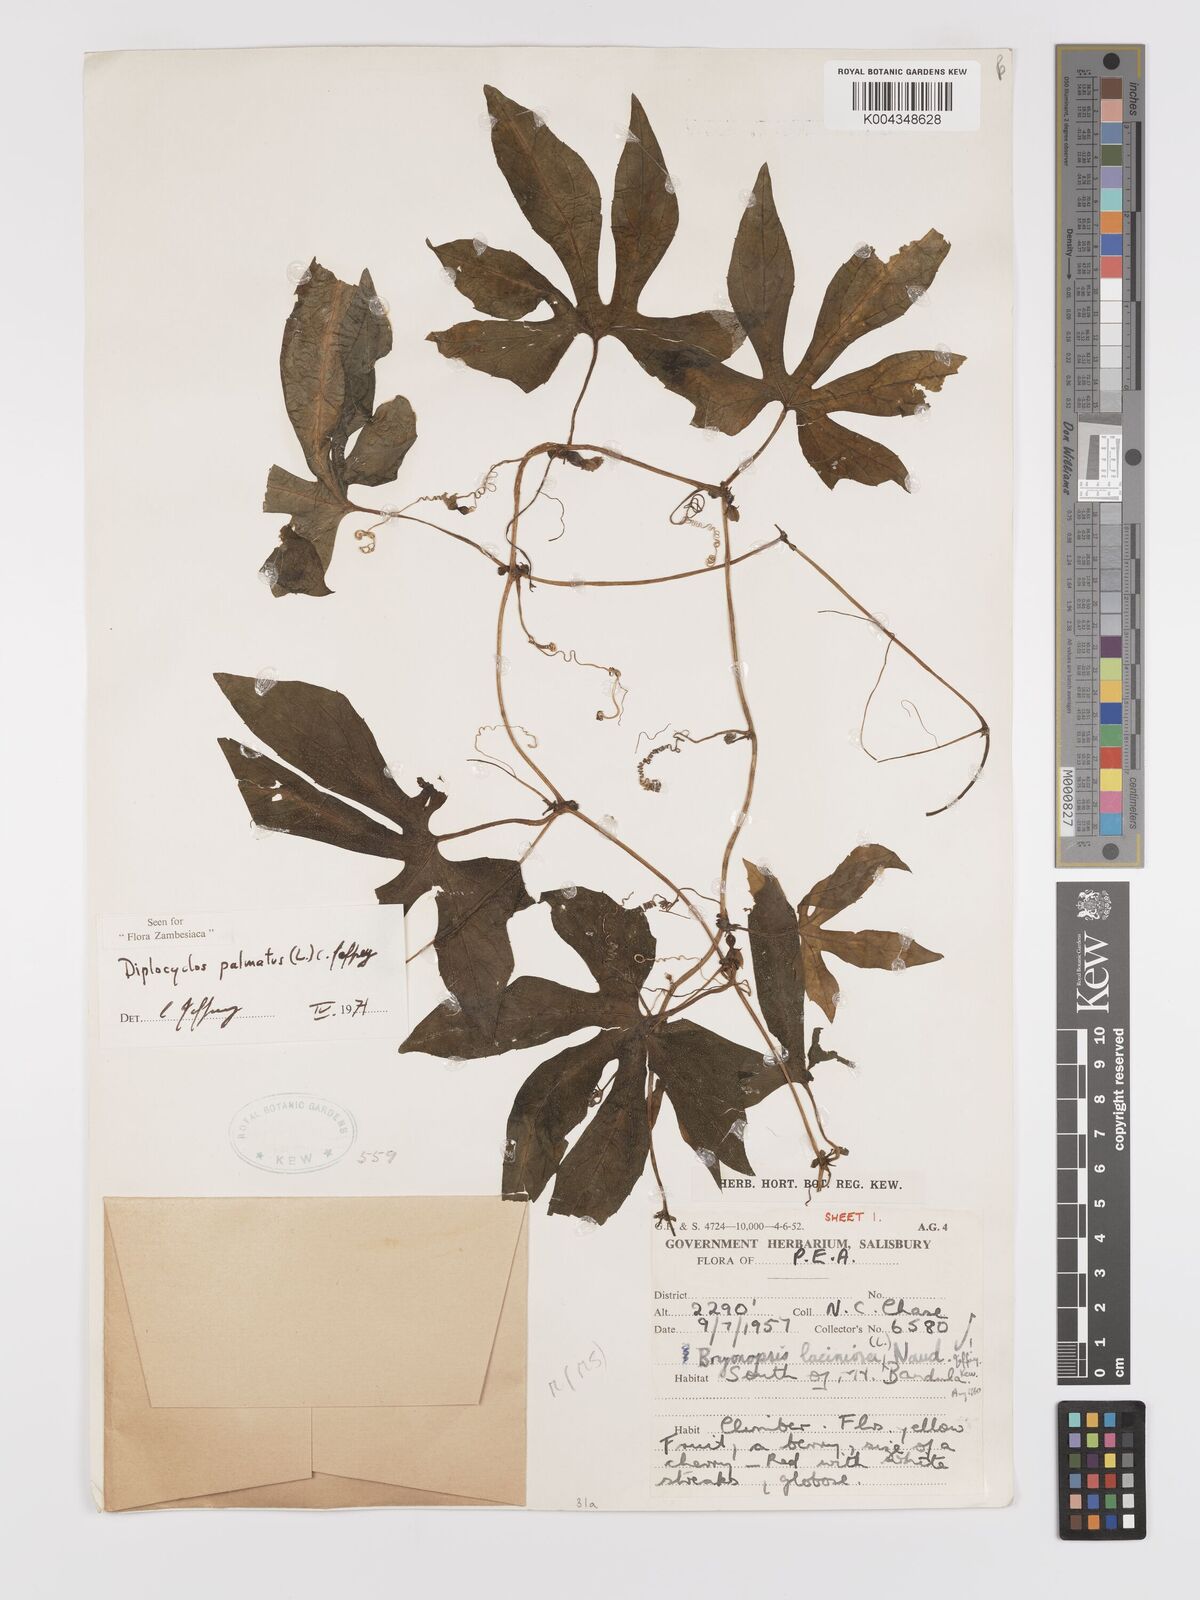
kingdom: Plantae
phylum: Tracheophyta
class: Magnoliopsida
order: Cucurbitales
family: Cucurbitaceae
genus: Diplocyclos
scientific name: Diplocyclos palmatus
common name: Striped-cucumber
